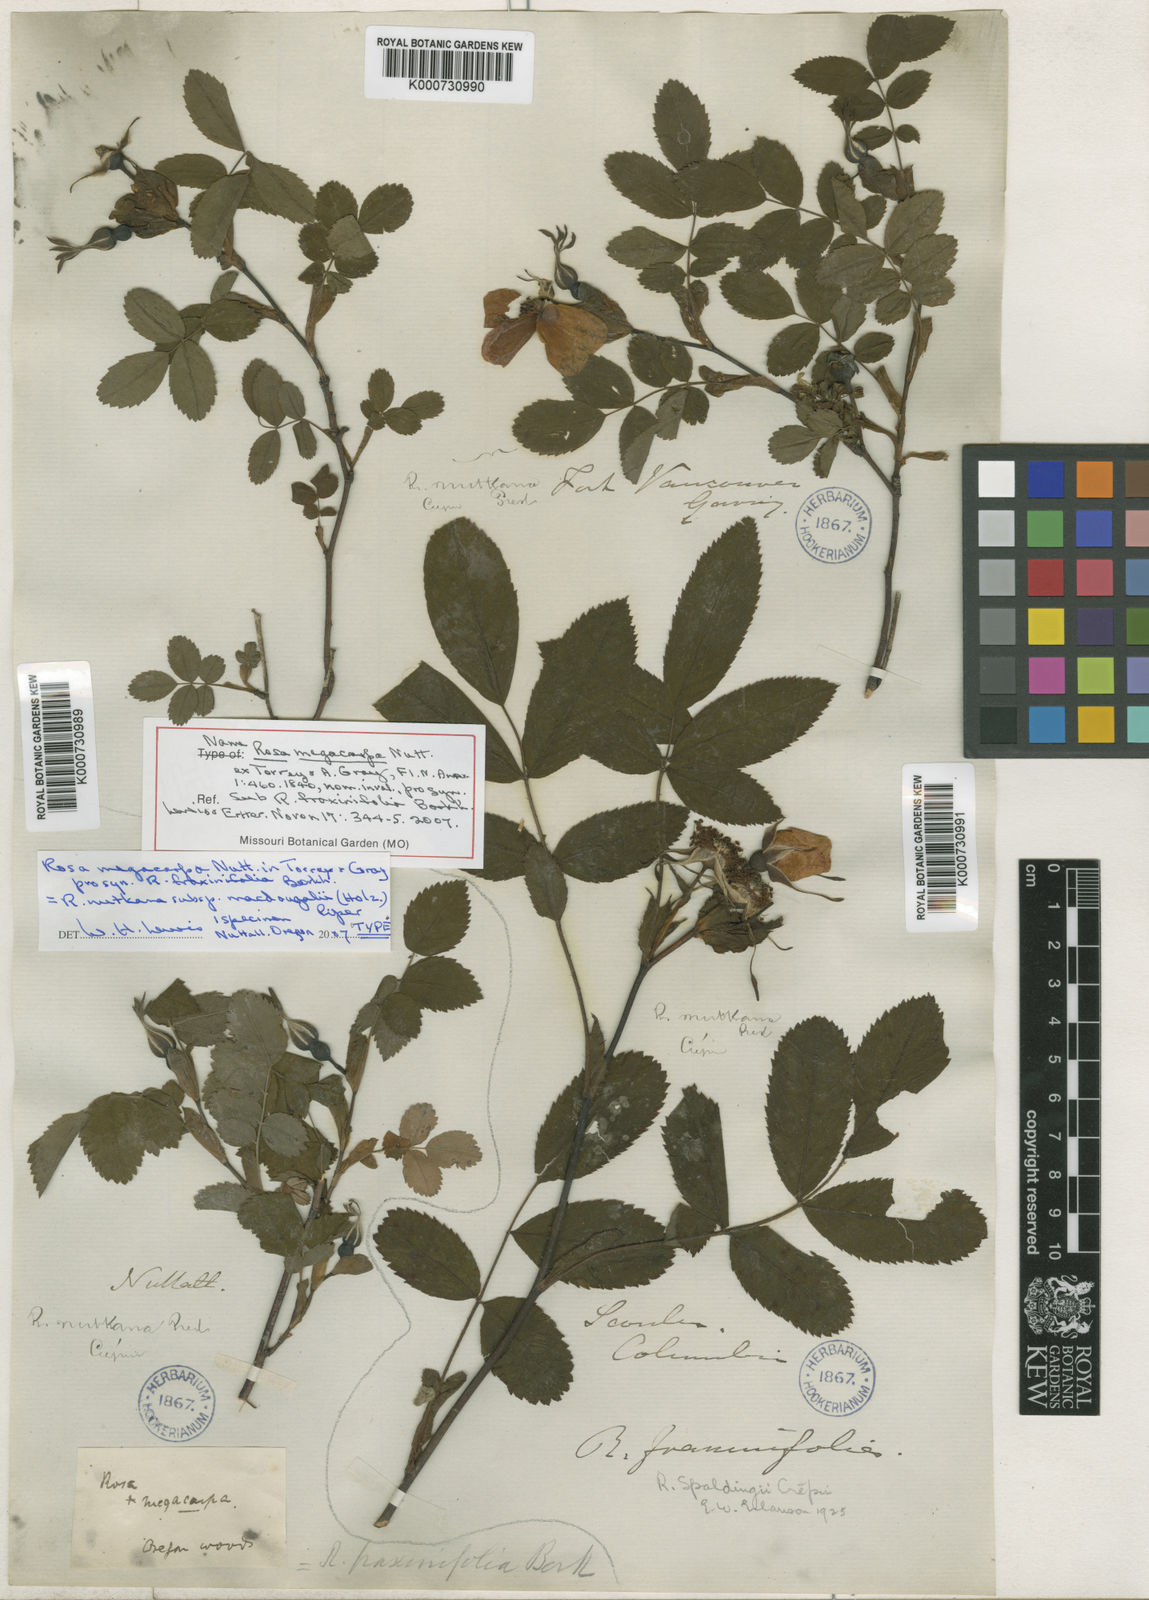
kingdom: Plantae
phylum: Tracheophyta
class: Magnoliopsida
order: Rosales
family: Rosaceae
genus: Rosa
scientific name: Rosa nutkana
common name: Nootka rose
